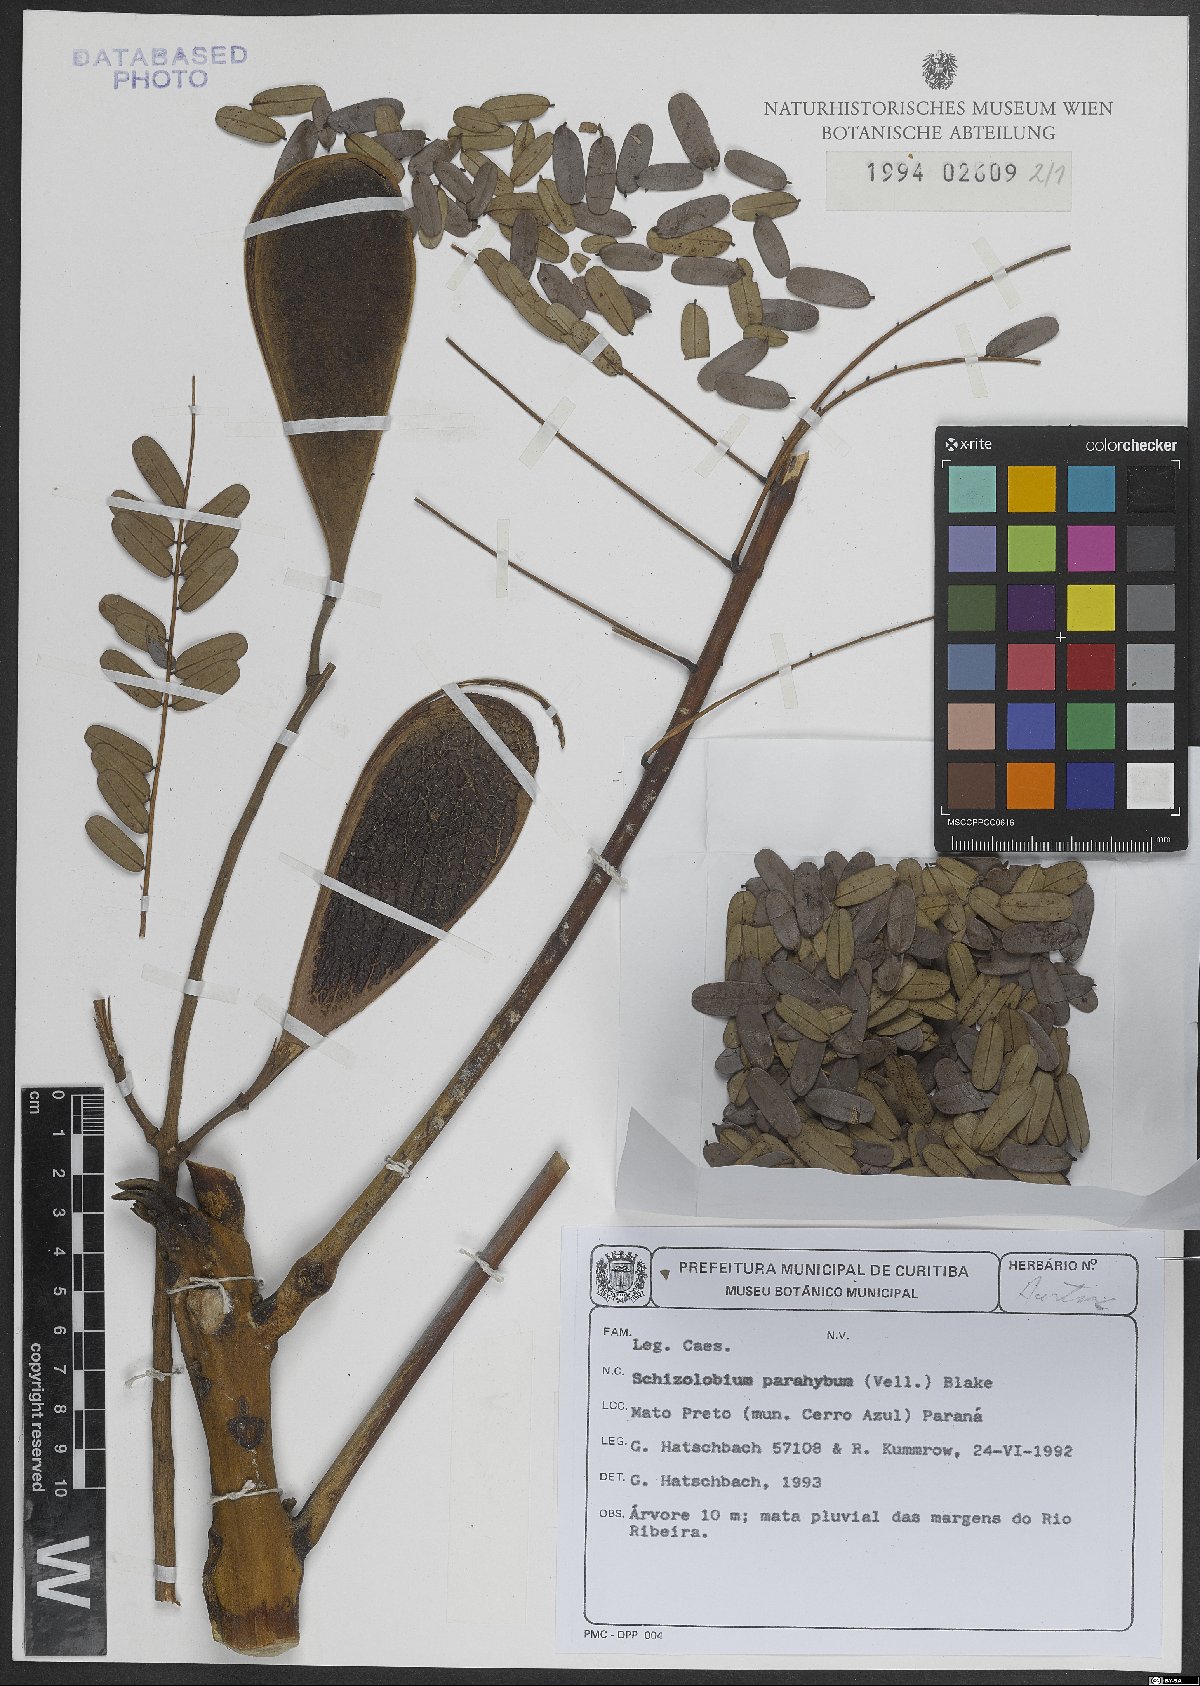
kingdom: Plantae
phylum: Tracheophyta
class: Magnoliopsida
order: Fabales
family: Fabaceae
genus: Schizolobium
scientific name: Schizolobium parahyba
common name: Brazilian firetree
